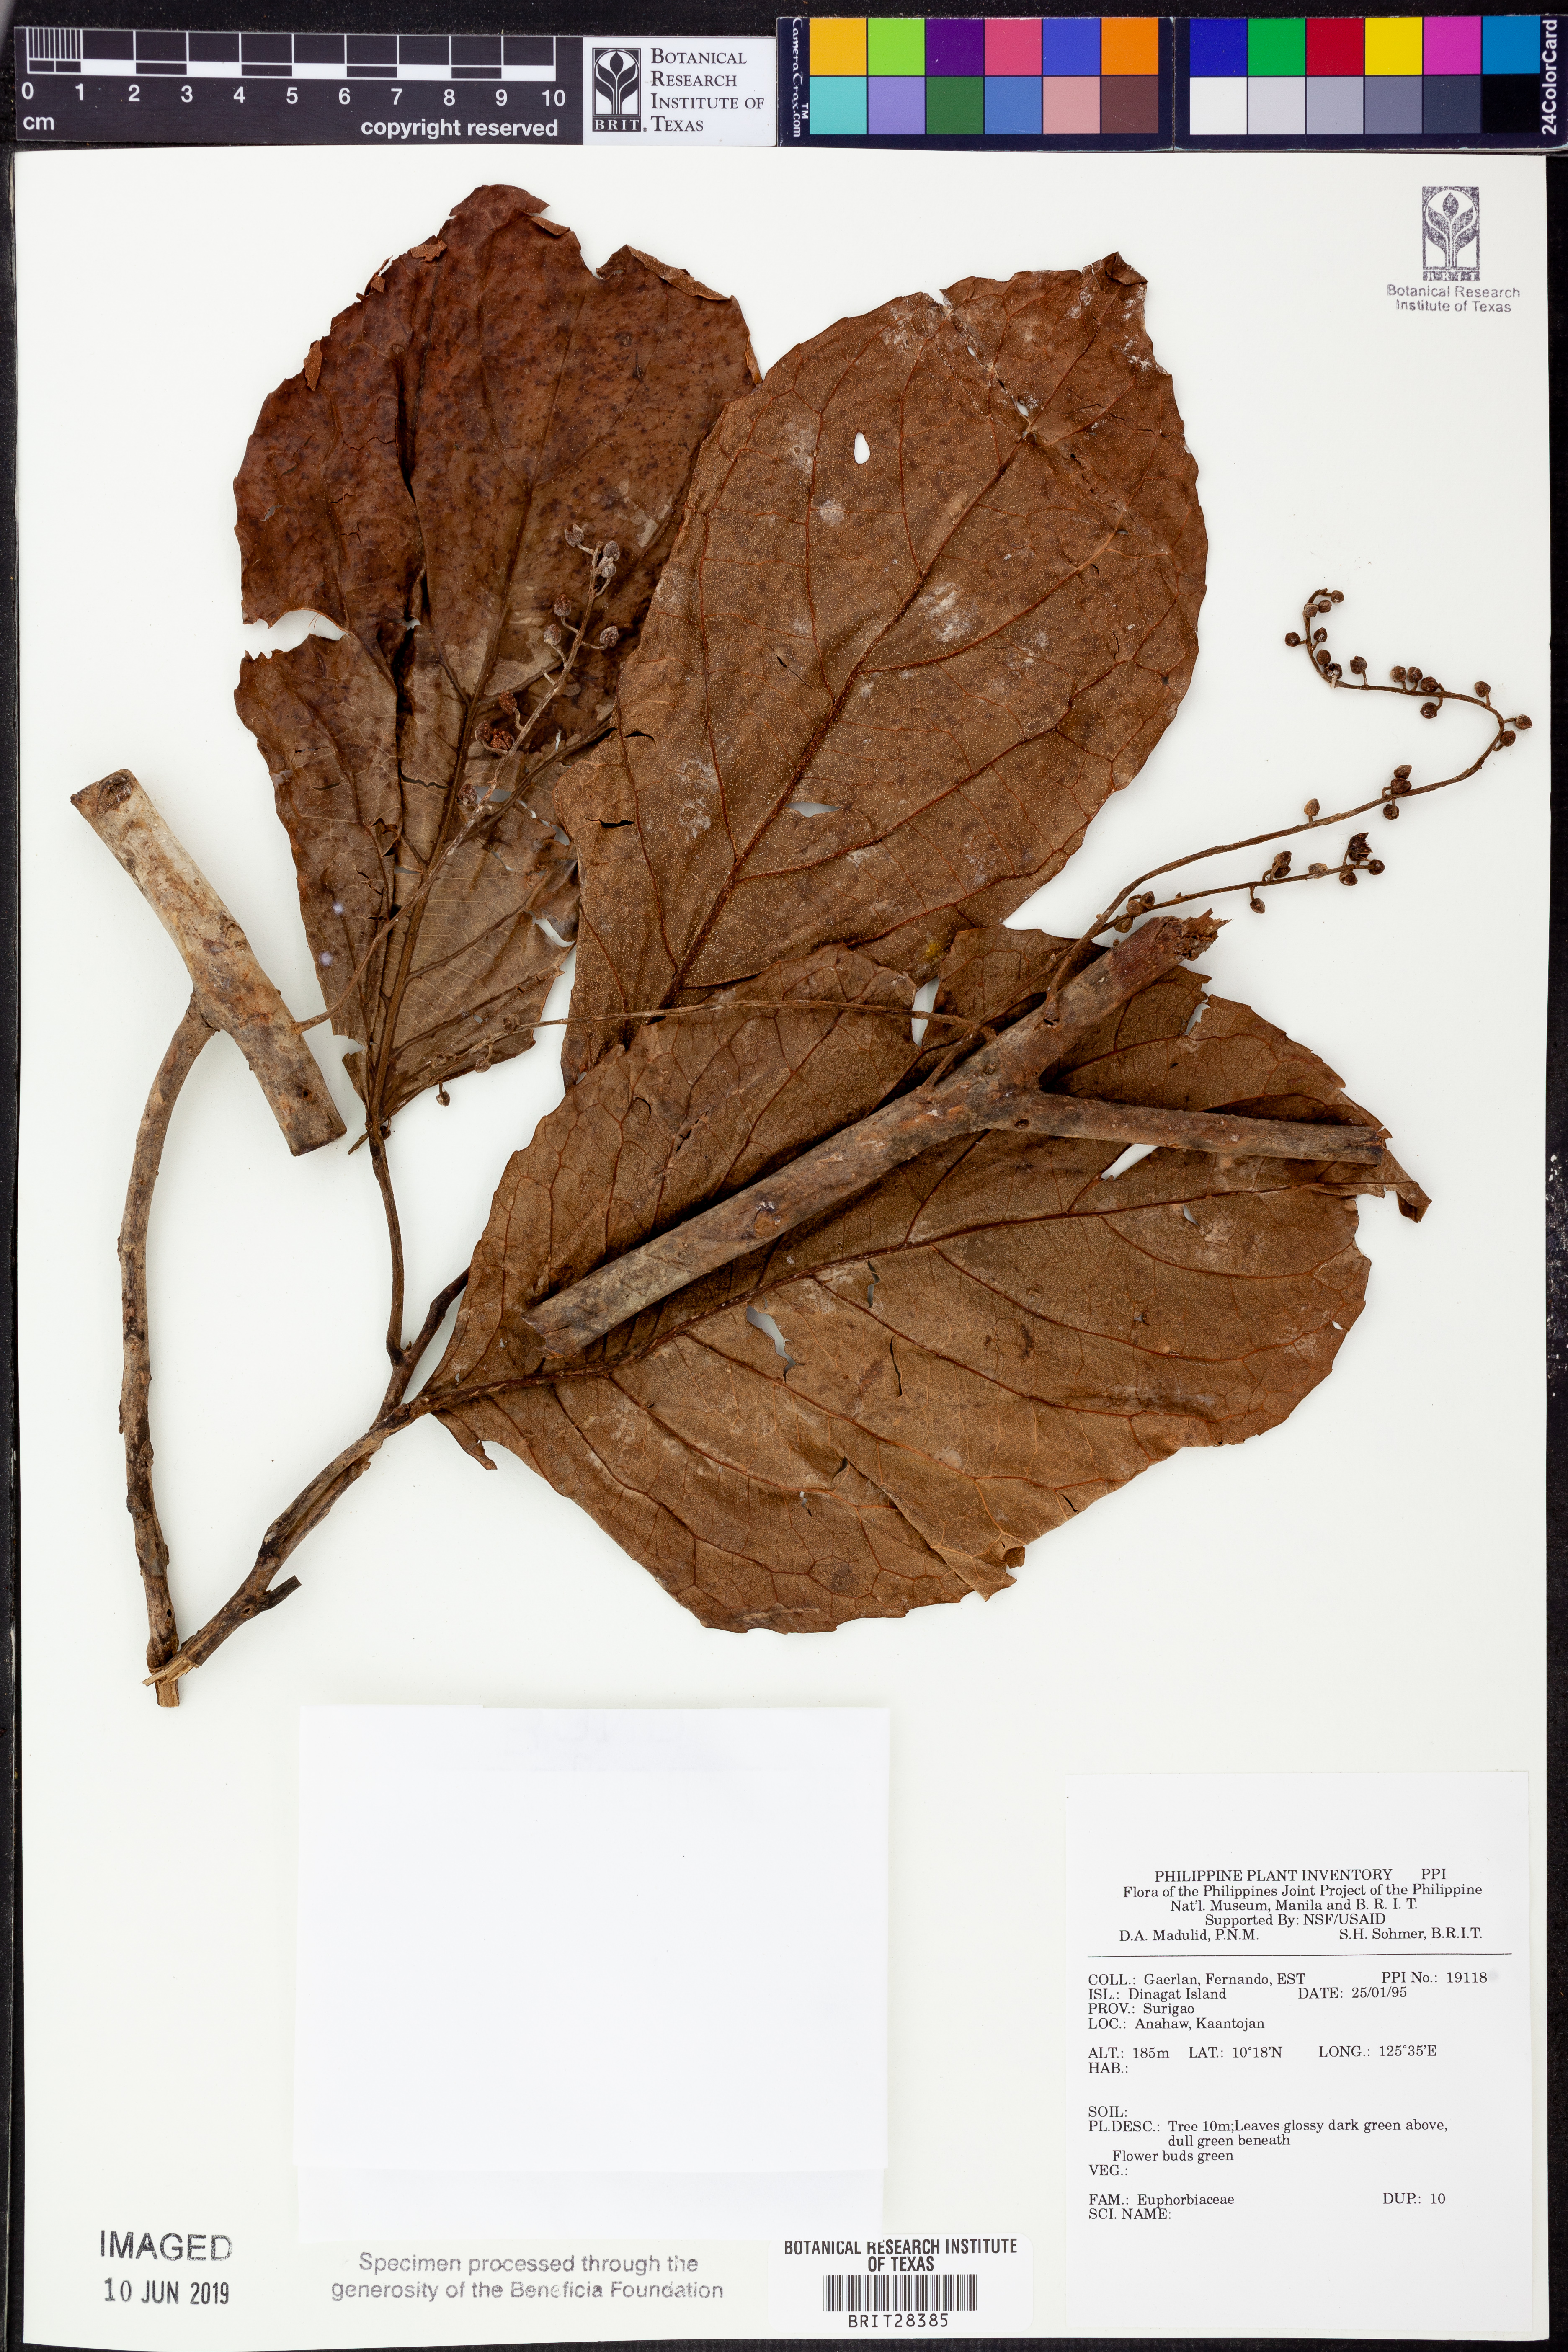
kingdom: Plantae
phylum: Tracheophyta
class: Magnoliopsida
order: Malpighiales
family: Euphorbiaceae
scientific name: Euphorbiaceae
